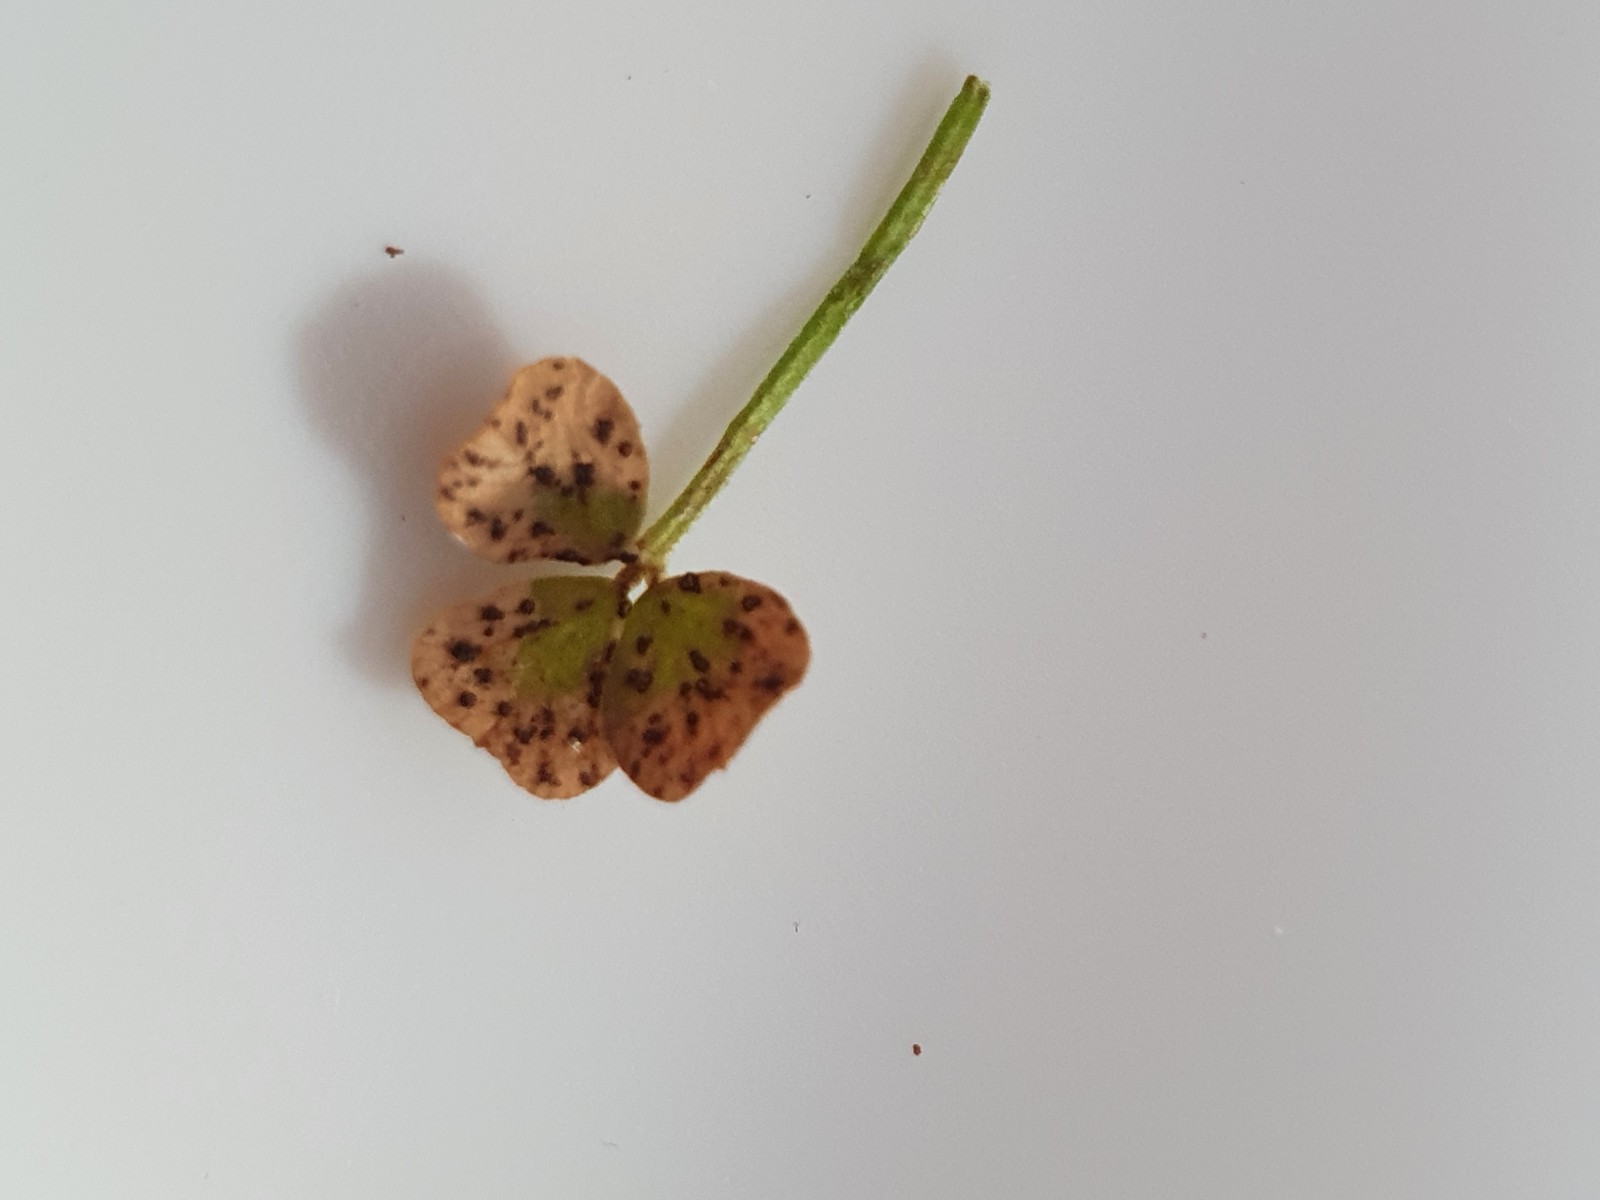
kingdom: Fungi
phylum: Ascomycota
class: Leotiomycetes
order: Helotiales
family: Drepanopezizaceae
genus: Pseudopeziza
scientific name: Pseudopeziza trifolii
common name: kløver-bladskive
